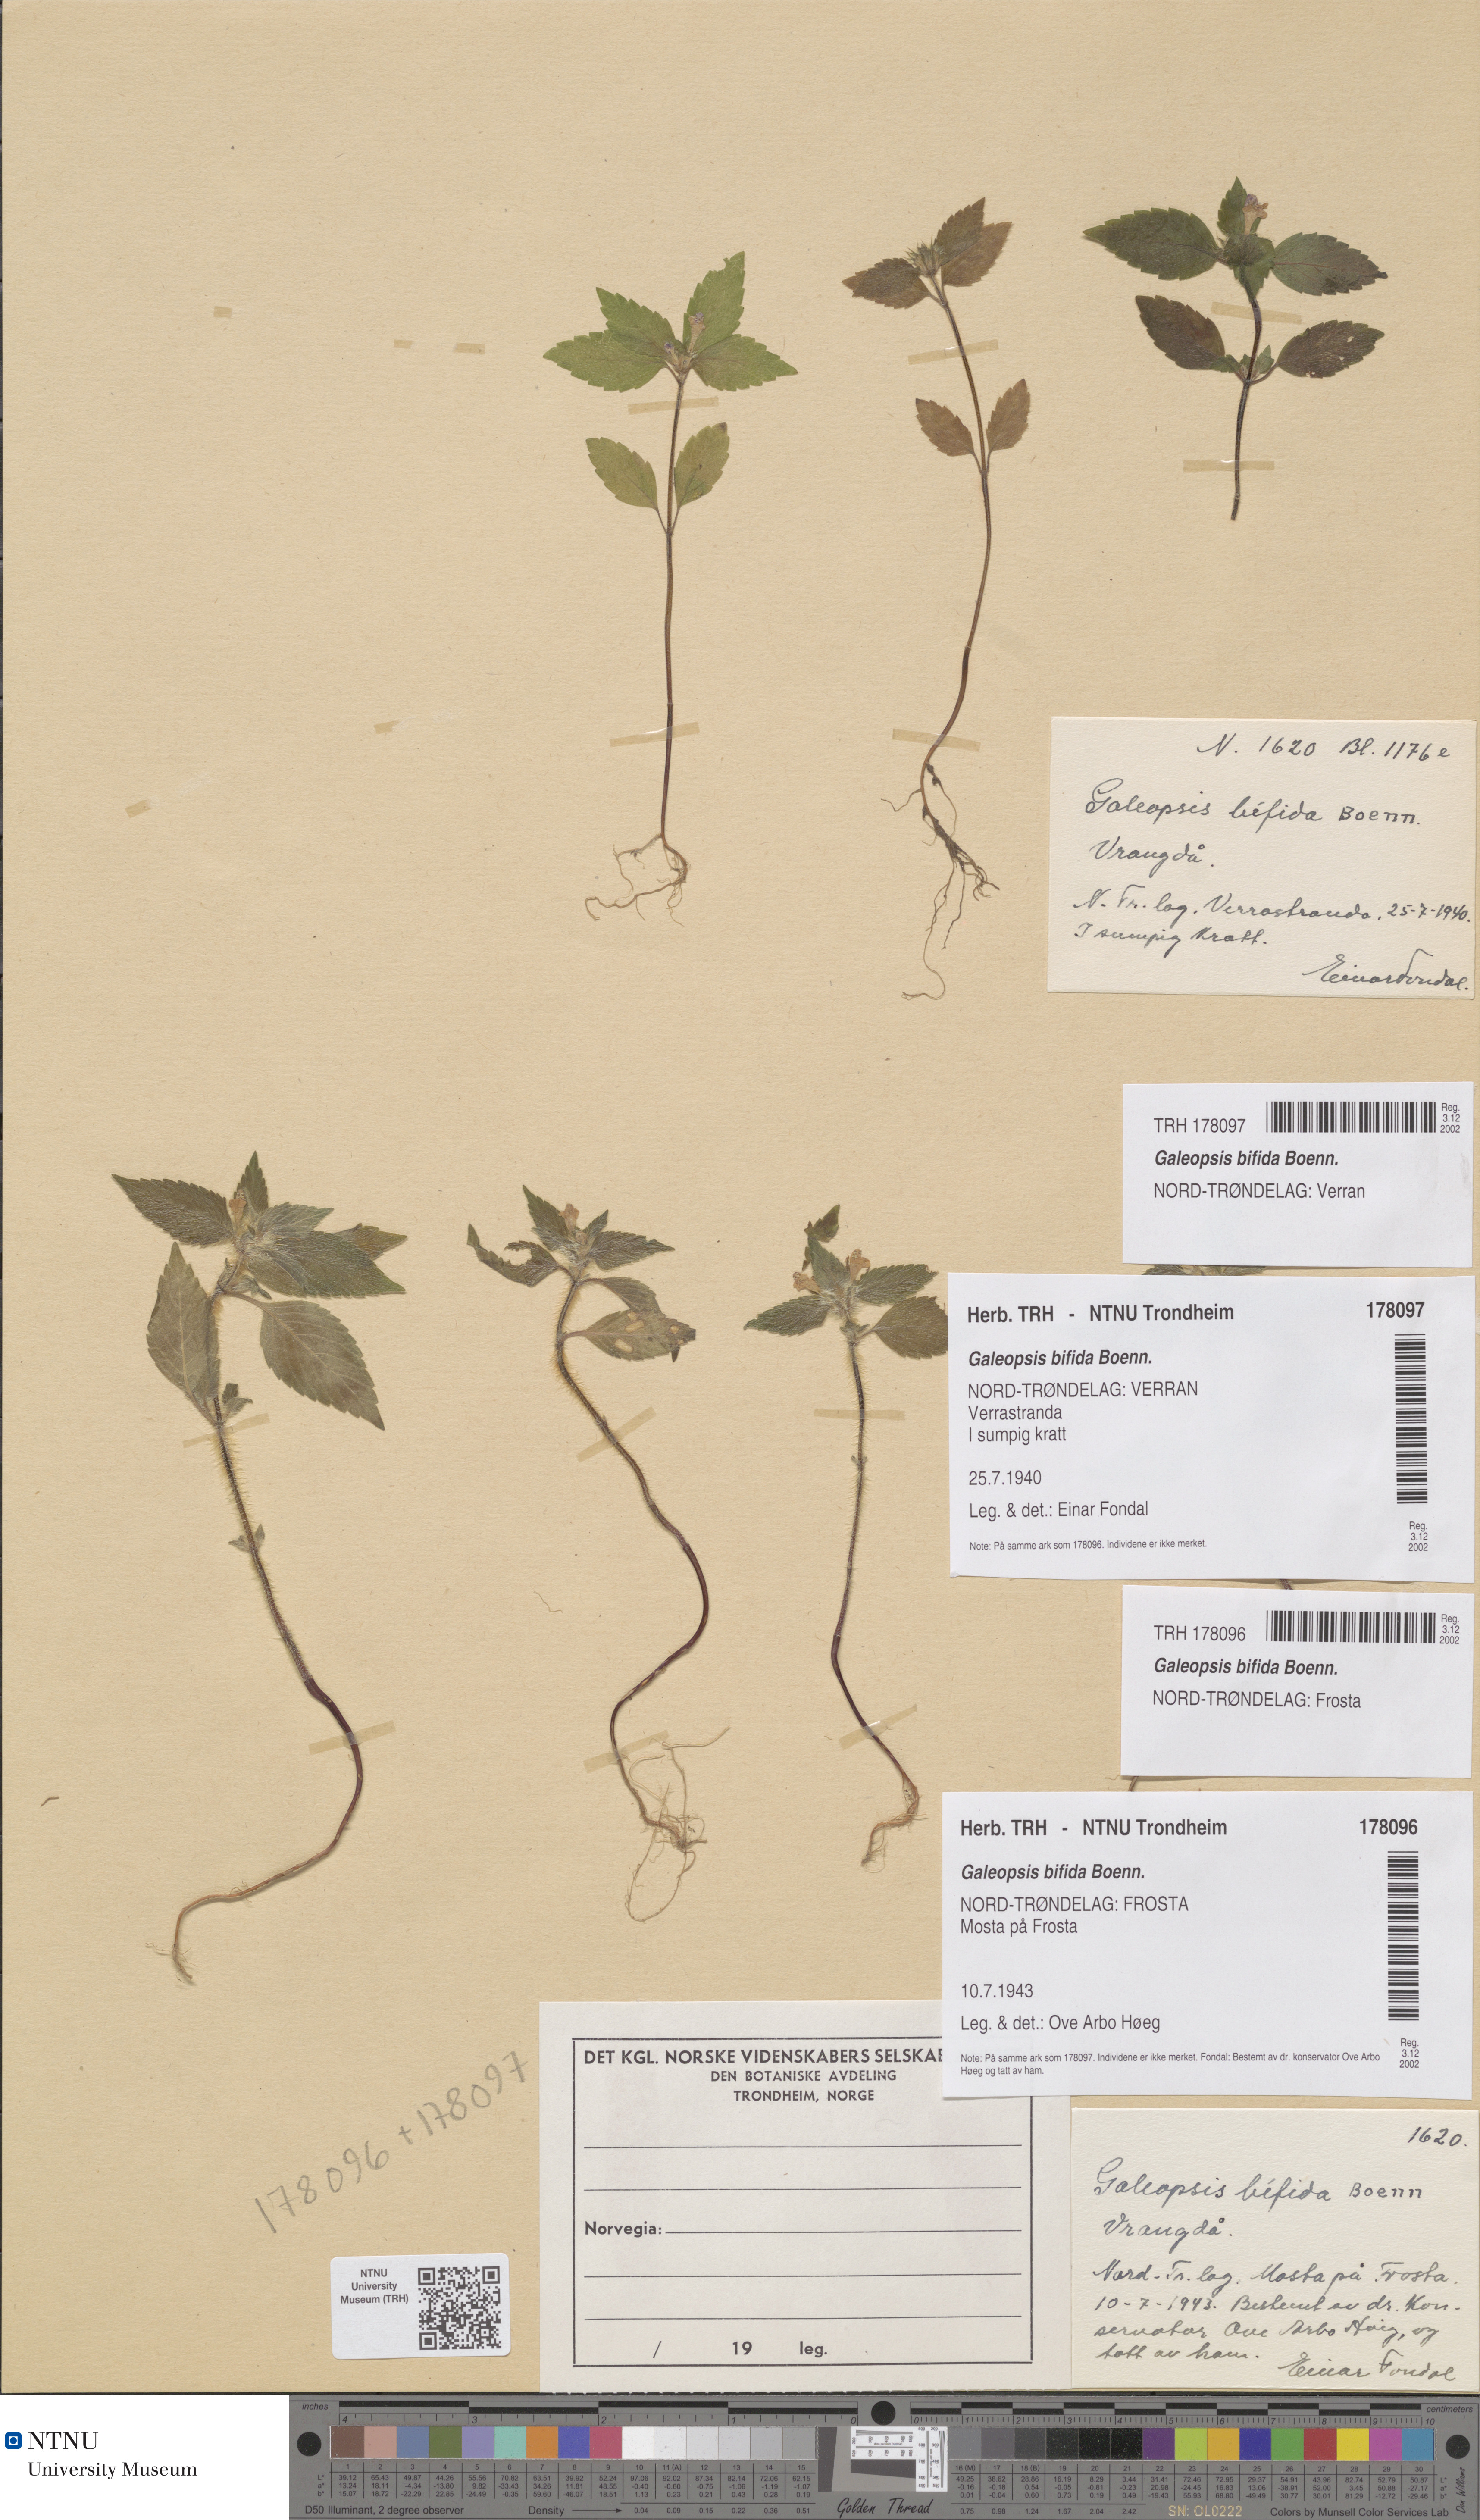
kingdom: Plantae
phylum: Tracheophyta
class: Magnoliopsida
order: Lamiales
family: Lamiaceae
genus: Galeopsis
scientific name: Galeopsis bifida
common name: Bifid hemp-nettle
